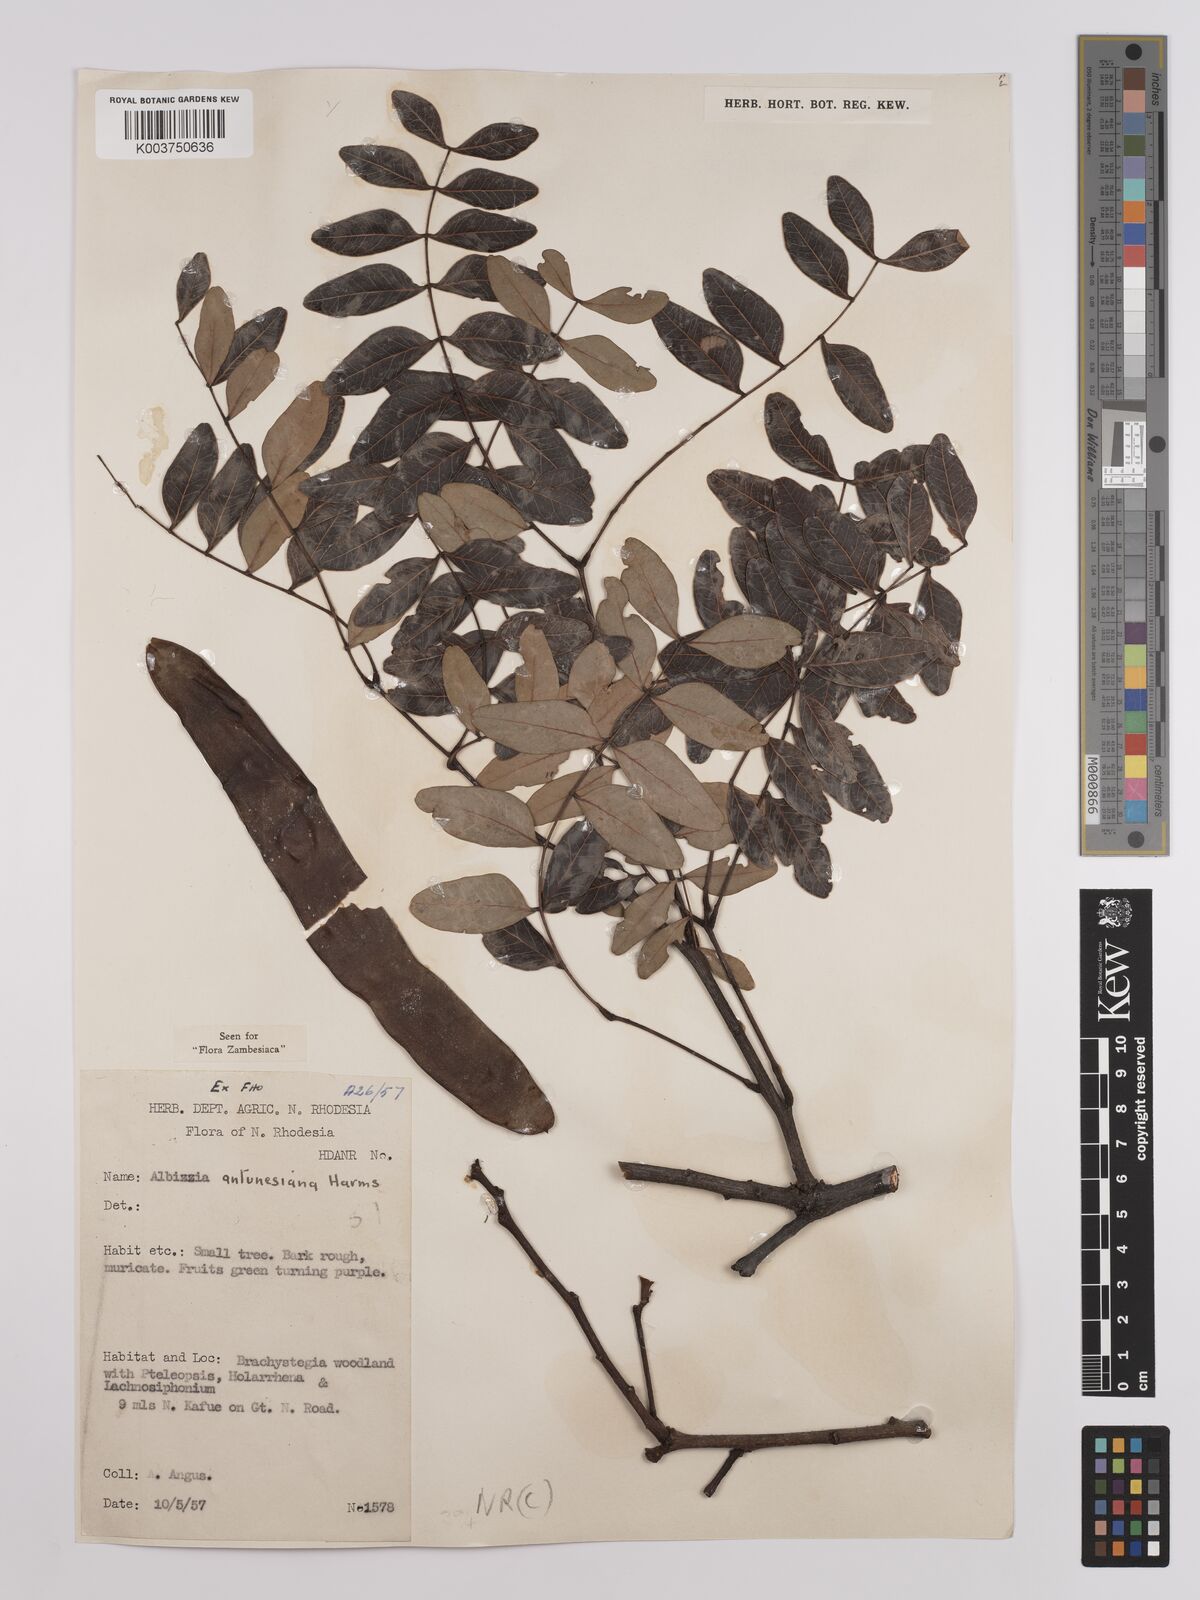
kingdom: Plantae
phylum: Tracheophyta
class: Magnoliopsida
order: Fabales
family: Fabaceae
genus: Albizia
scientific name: Albizia antunesiana
